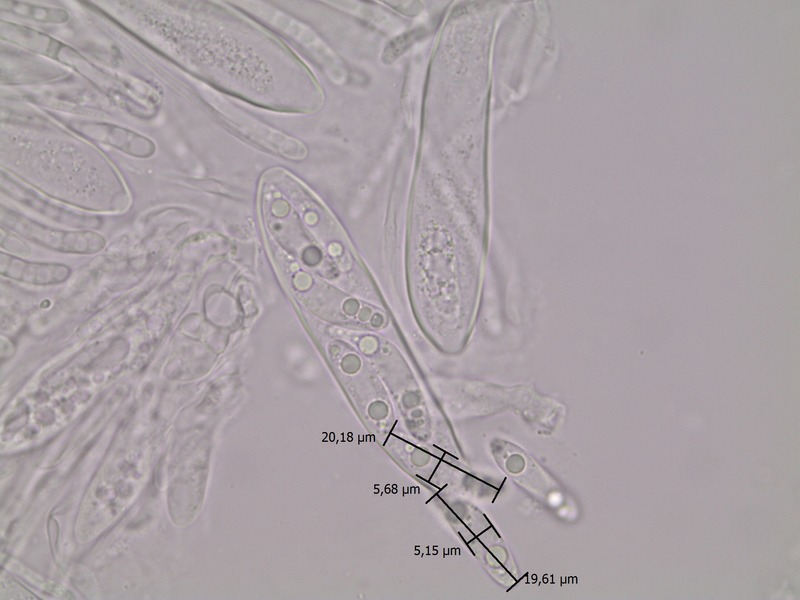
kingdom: Fungi
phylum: Ascomycota
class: Leotiomycetes
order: Helotiales
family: Drepanopezizaceae
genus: Leptotrochila
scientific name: Leptotrochila astrantiae
